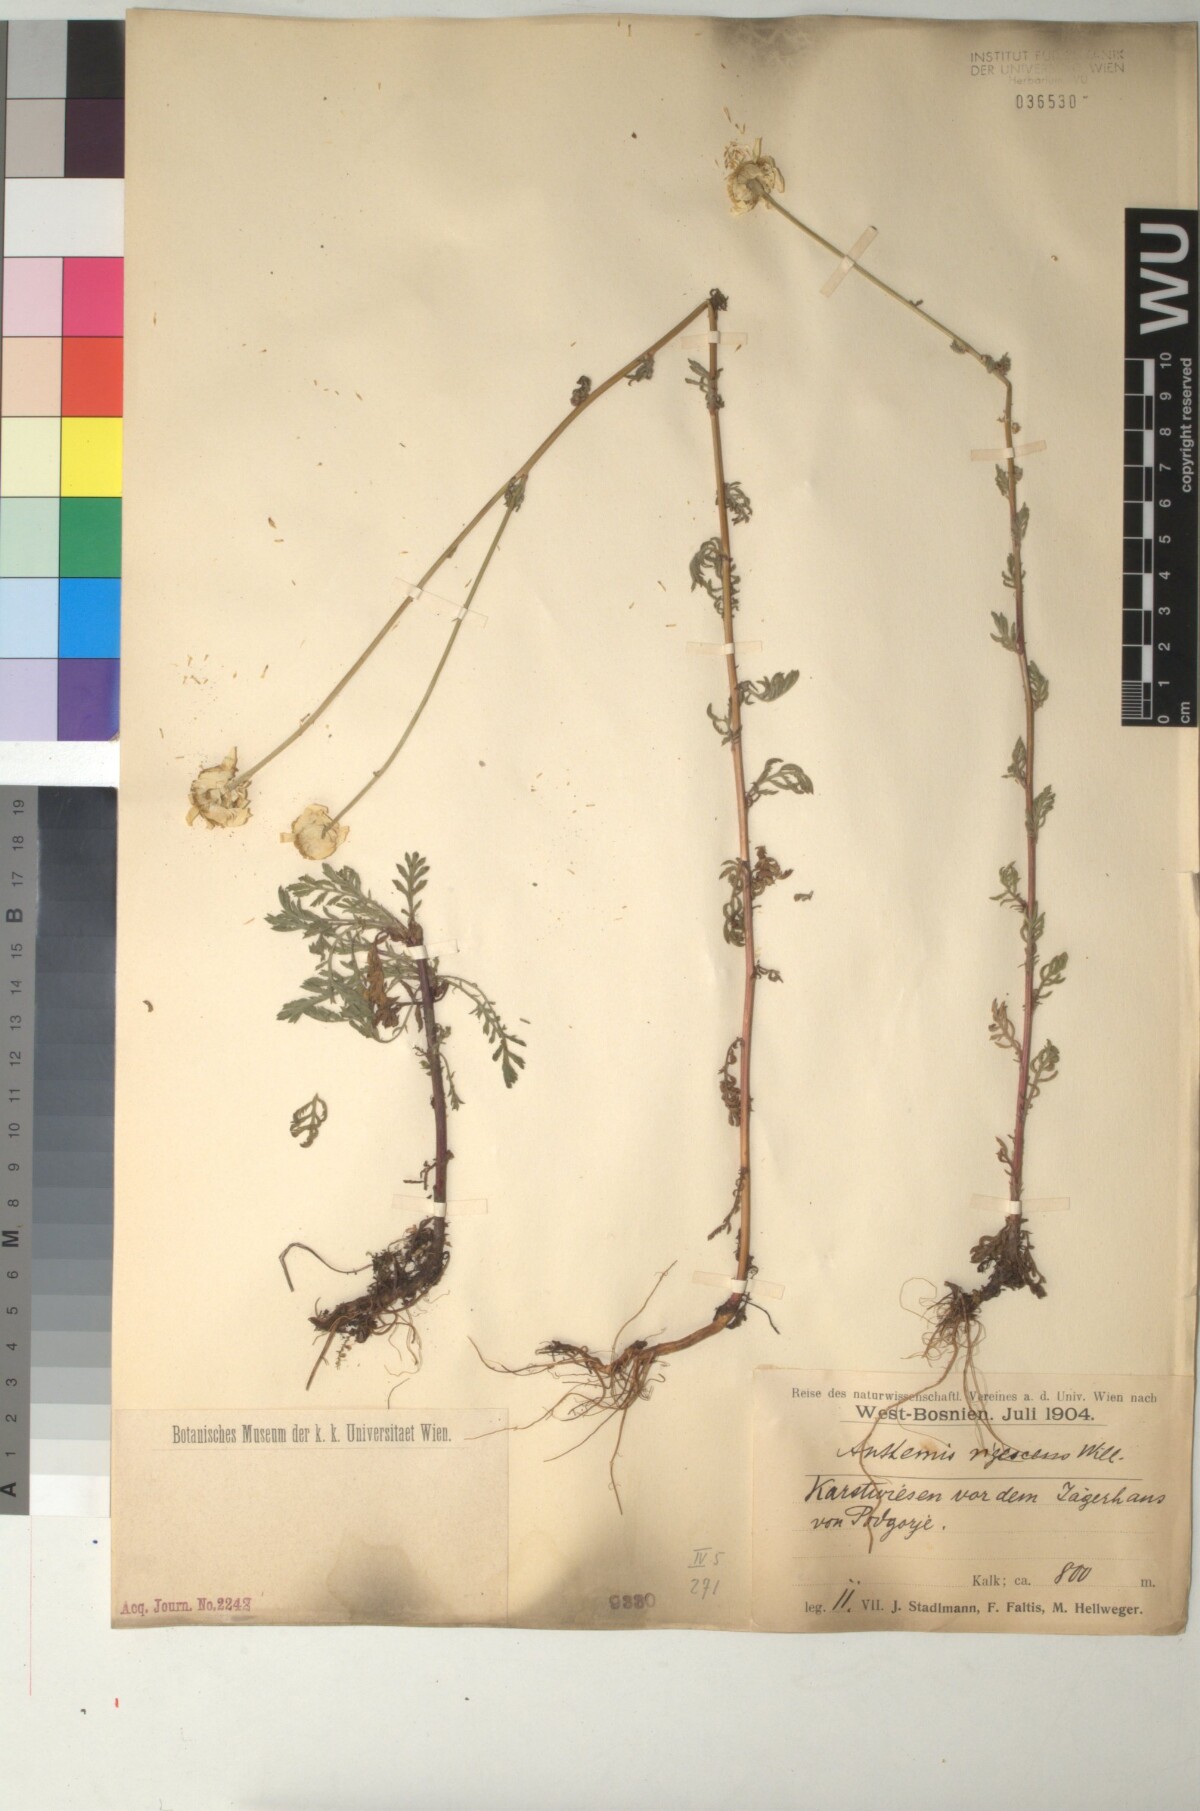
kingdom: Plantae
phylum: Tracheophyta
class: Magnoliopsida
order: Asterales
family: Asteraceae
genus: Cota
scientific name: Cota triumfetti
